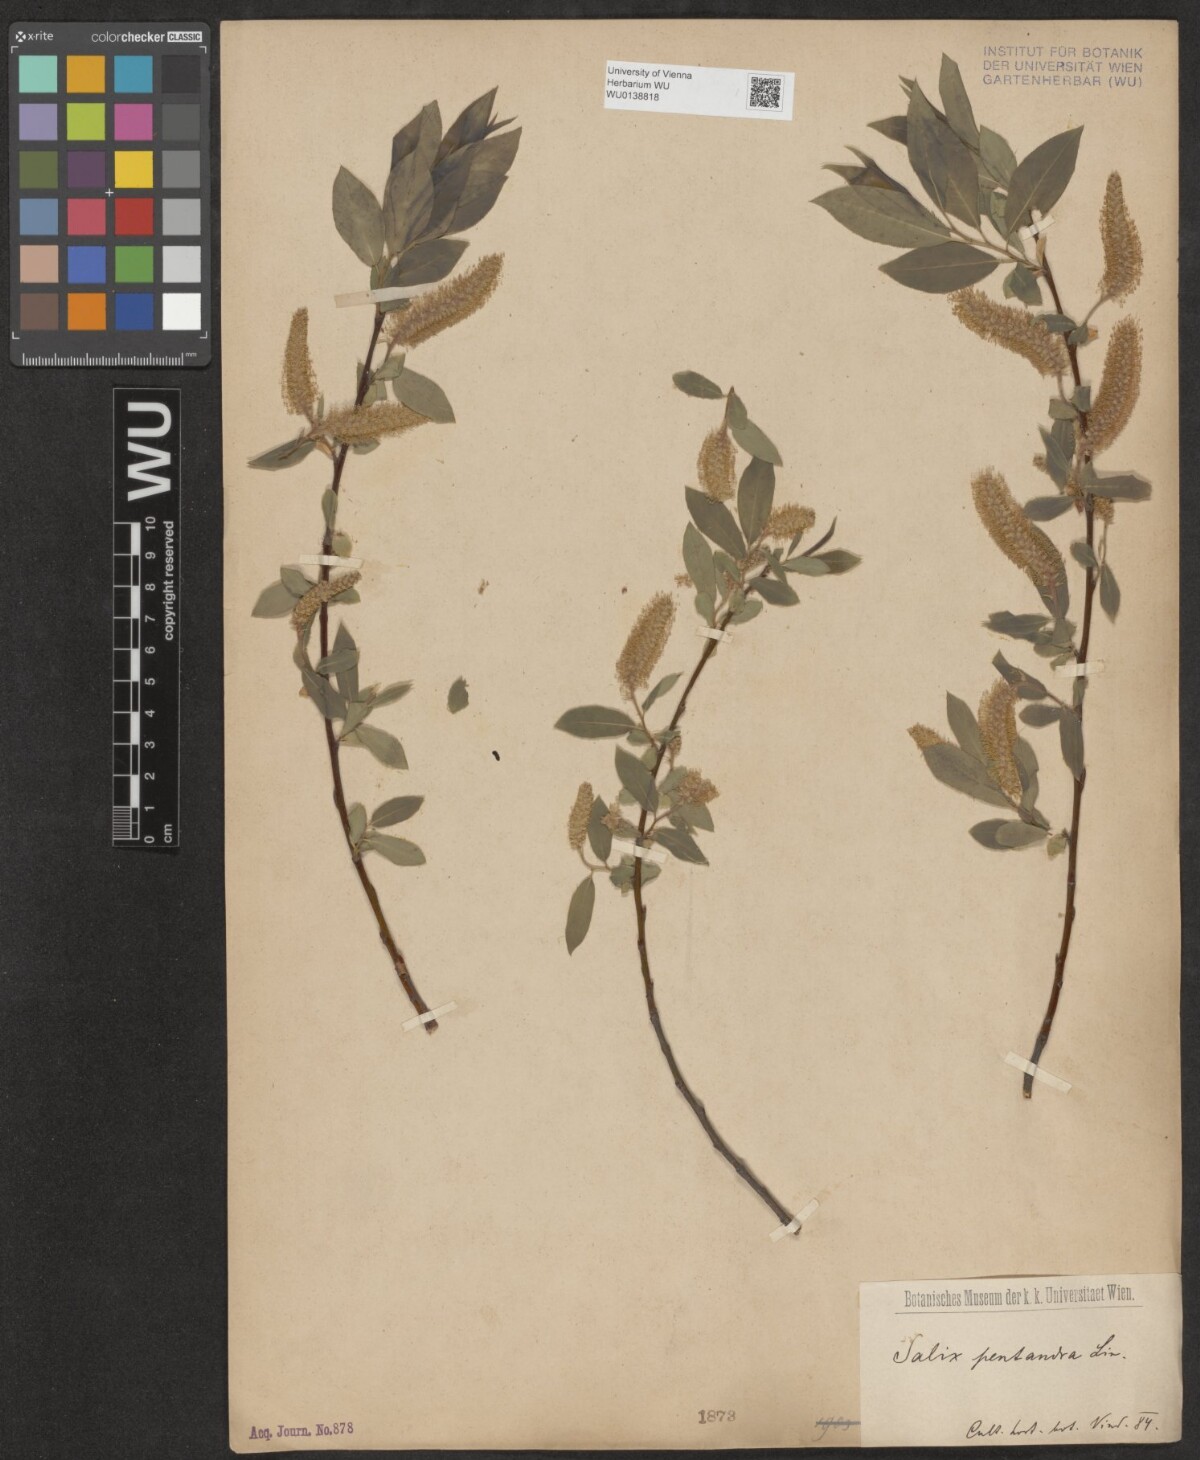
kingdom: Plantae
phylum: Tracheophyta
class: Magnoliopsida
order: Malpighiales
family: Salicaceae
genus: Salix
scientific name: Salix pentandra
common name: Bay willow
